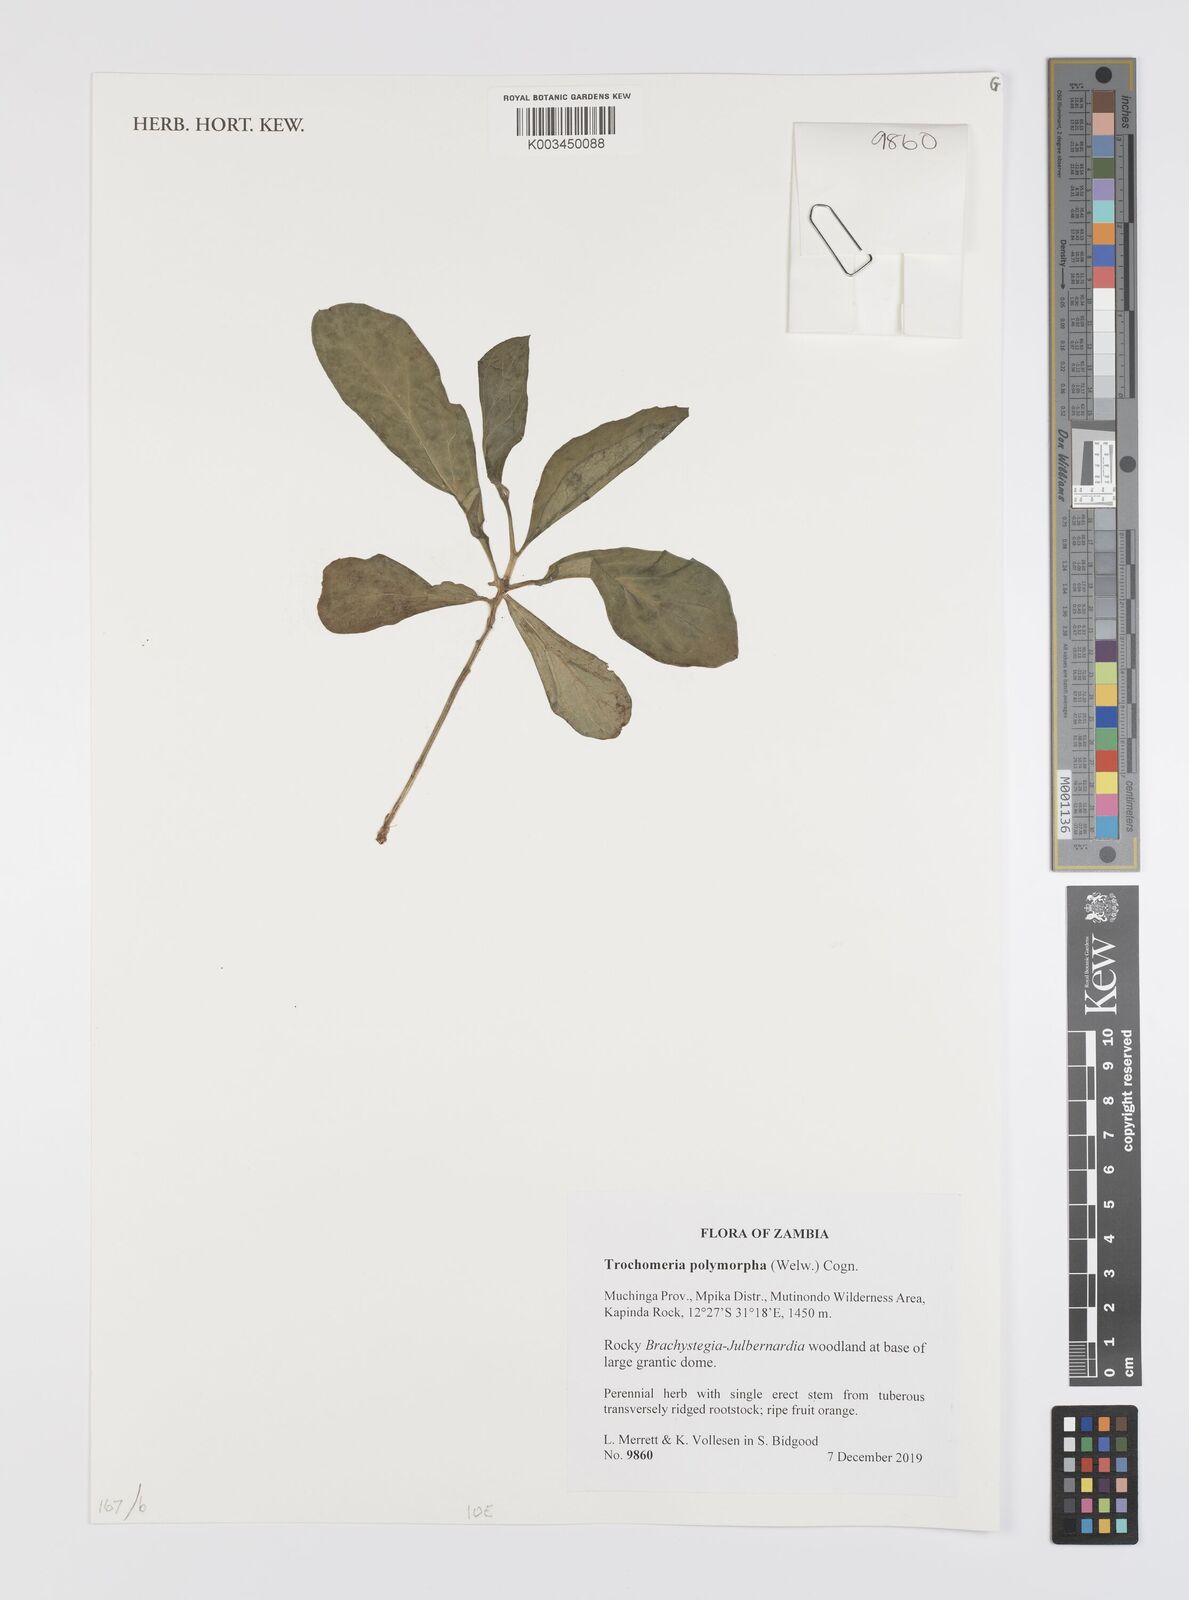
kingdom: Plantae
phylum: Tracheophyta
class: Magnoliopsida
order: Cucurbitales
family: Cucurbitaceae
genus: Trochomeria
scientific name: Trochomeria polymorpha
